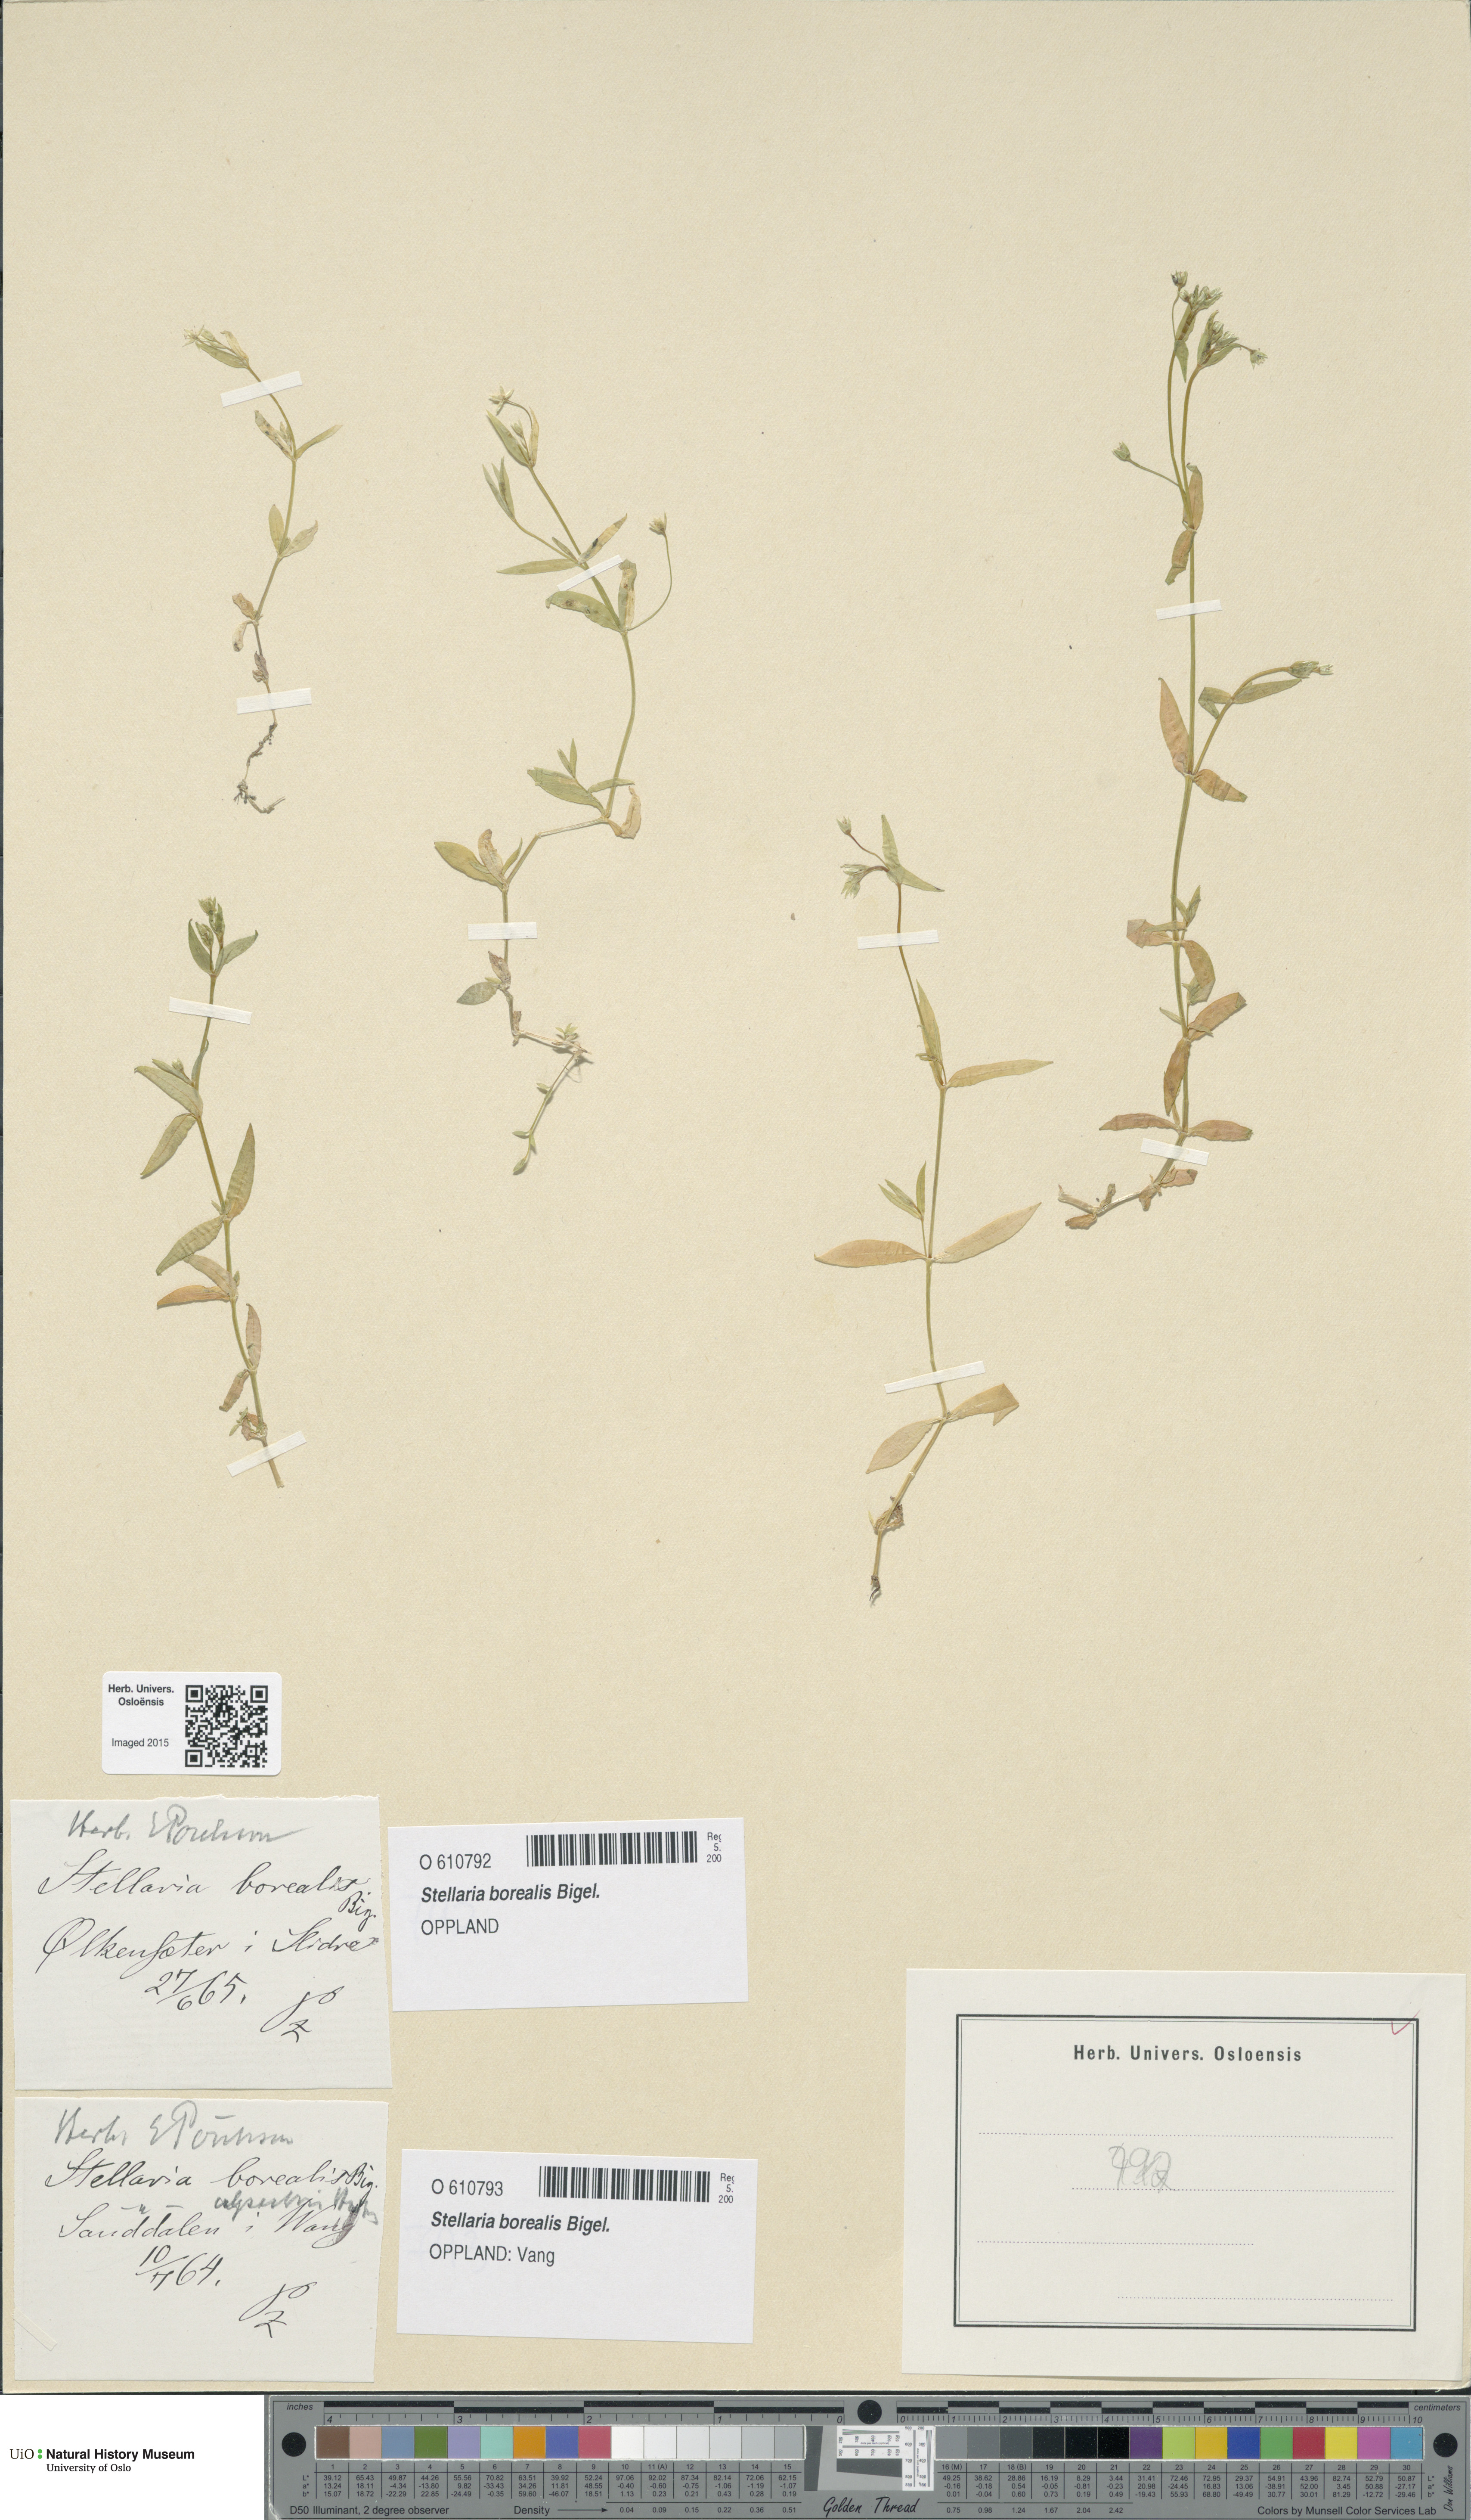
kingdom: Plantae
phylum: Tracheophyta
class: Magnoliopsida
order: Caryophyllales
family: Caryophyllaceae
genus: Stellaria
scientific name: Stellaria borealis
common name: Boreal starwort
